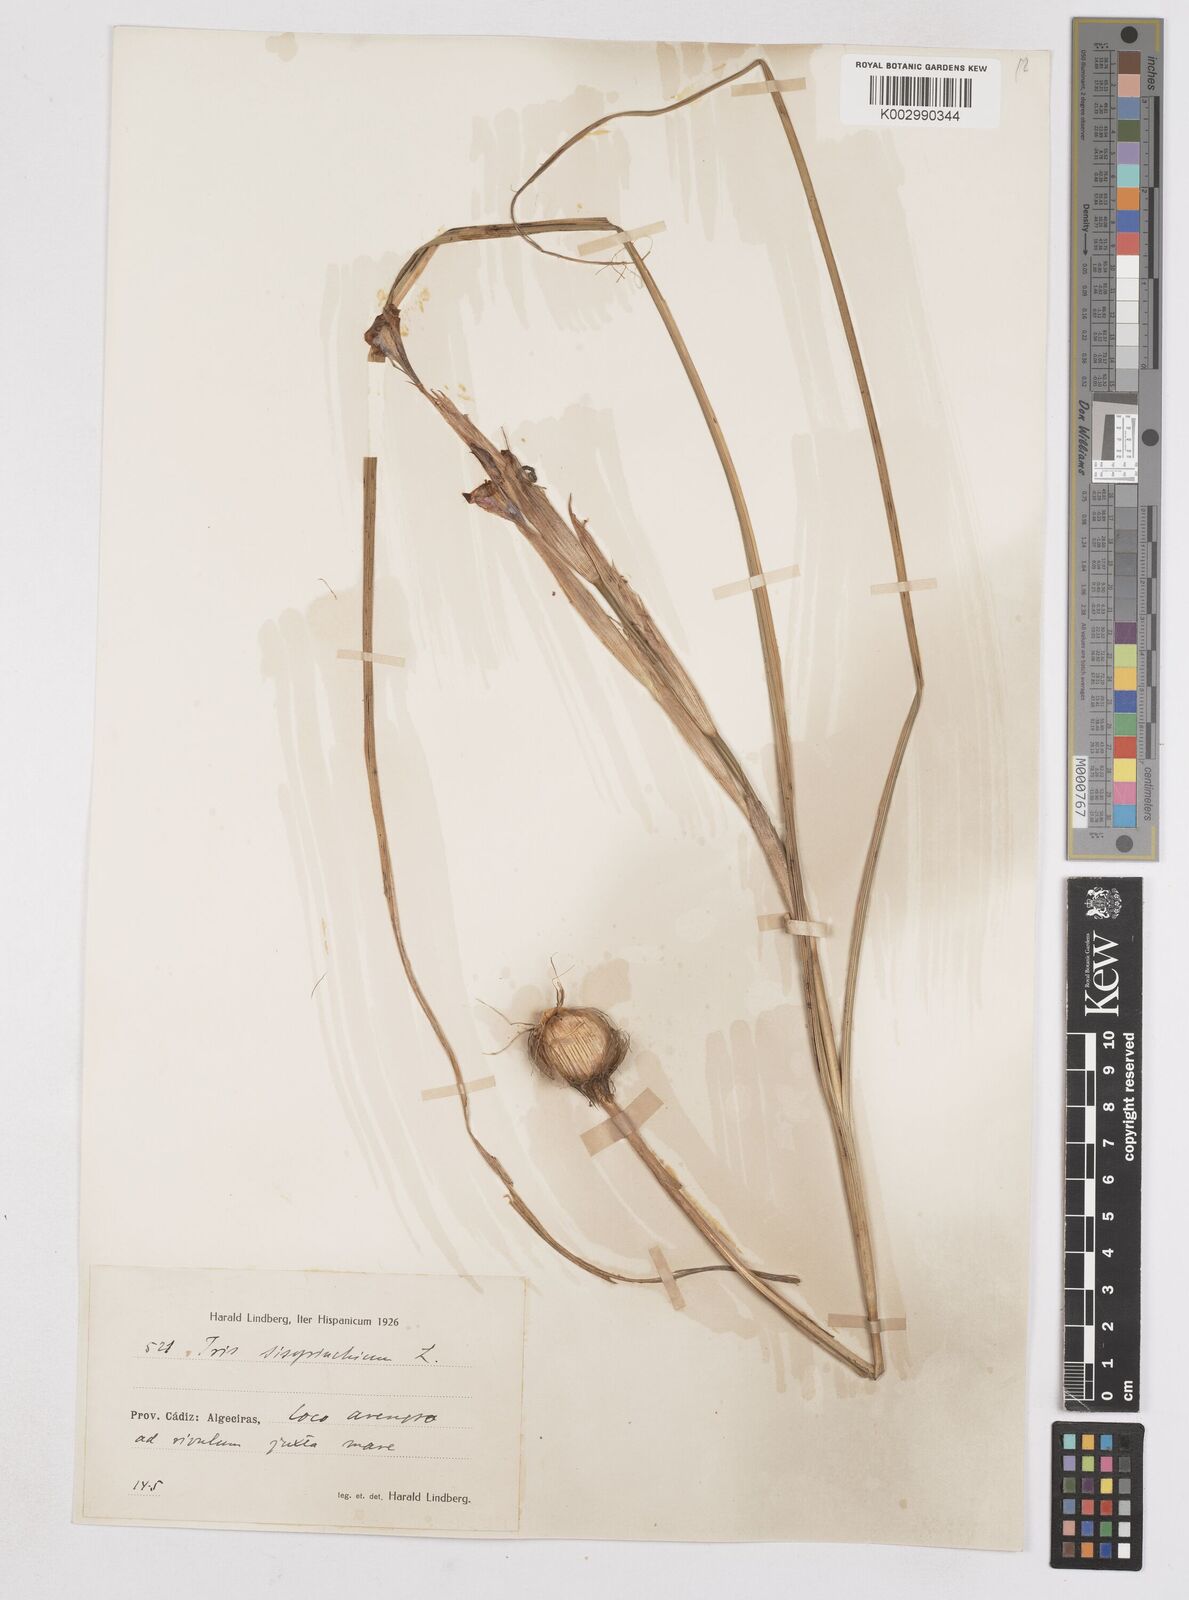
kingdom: Plantae
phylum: Tracheophyta
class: Liliopsida
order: Asparagales
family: Iridaceae
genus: Moraea
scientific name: Moraea sisyrinchium
